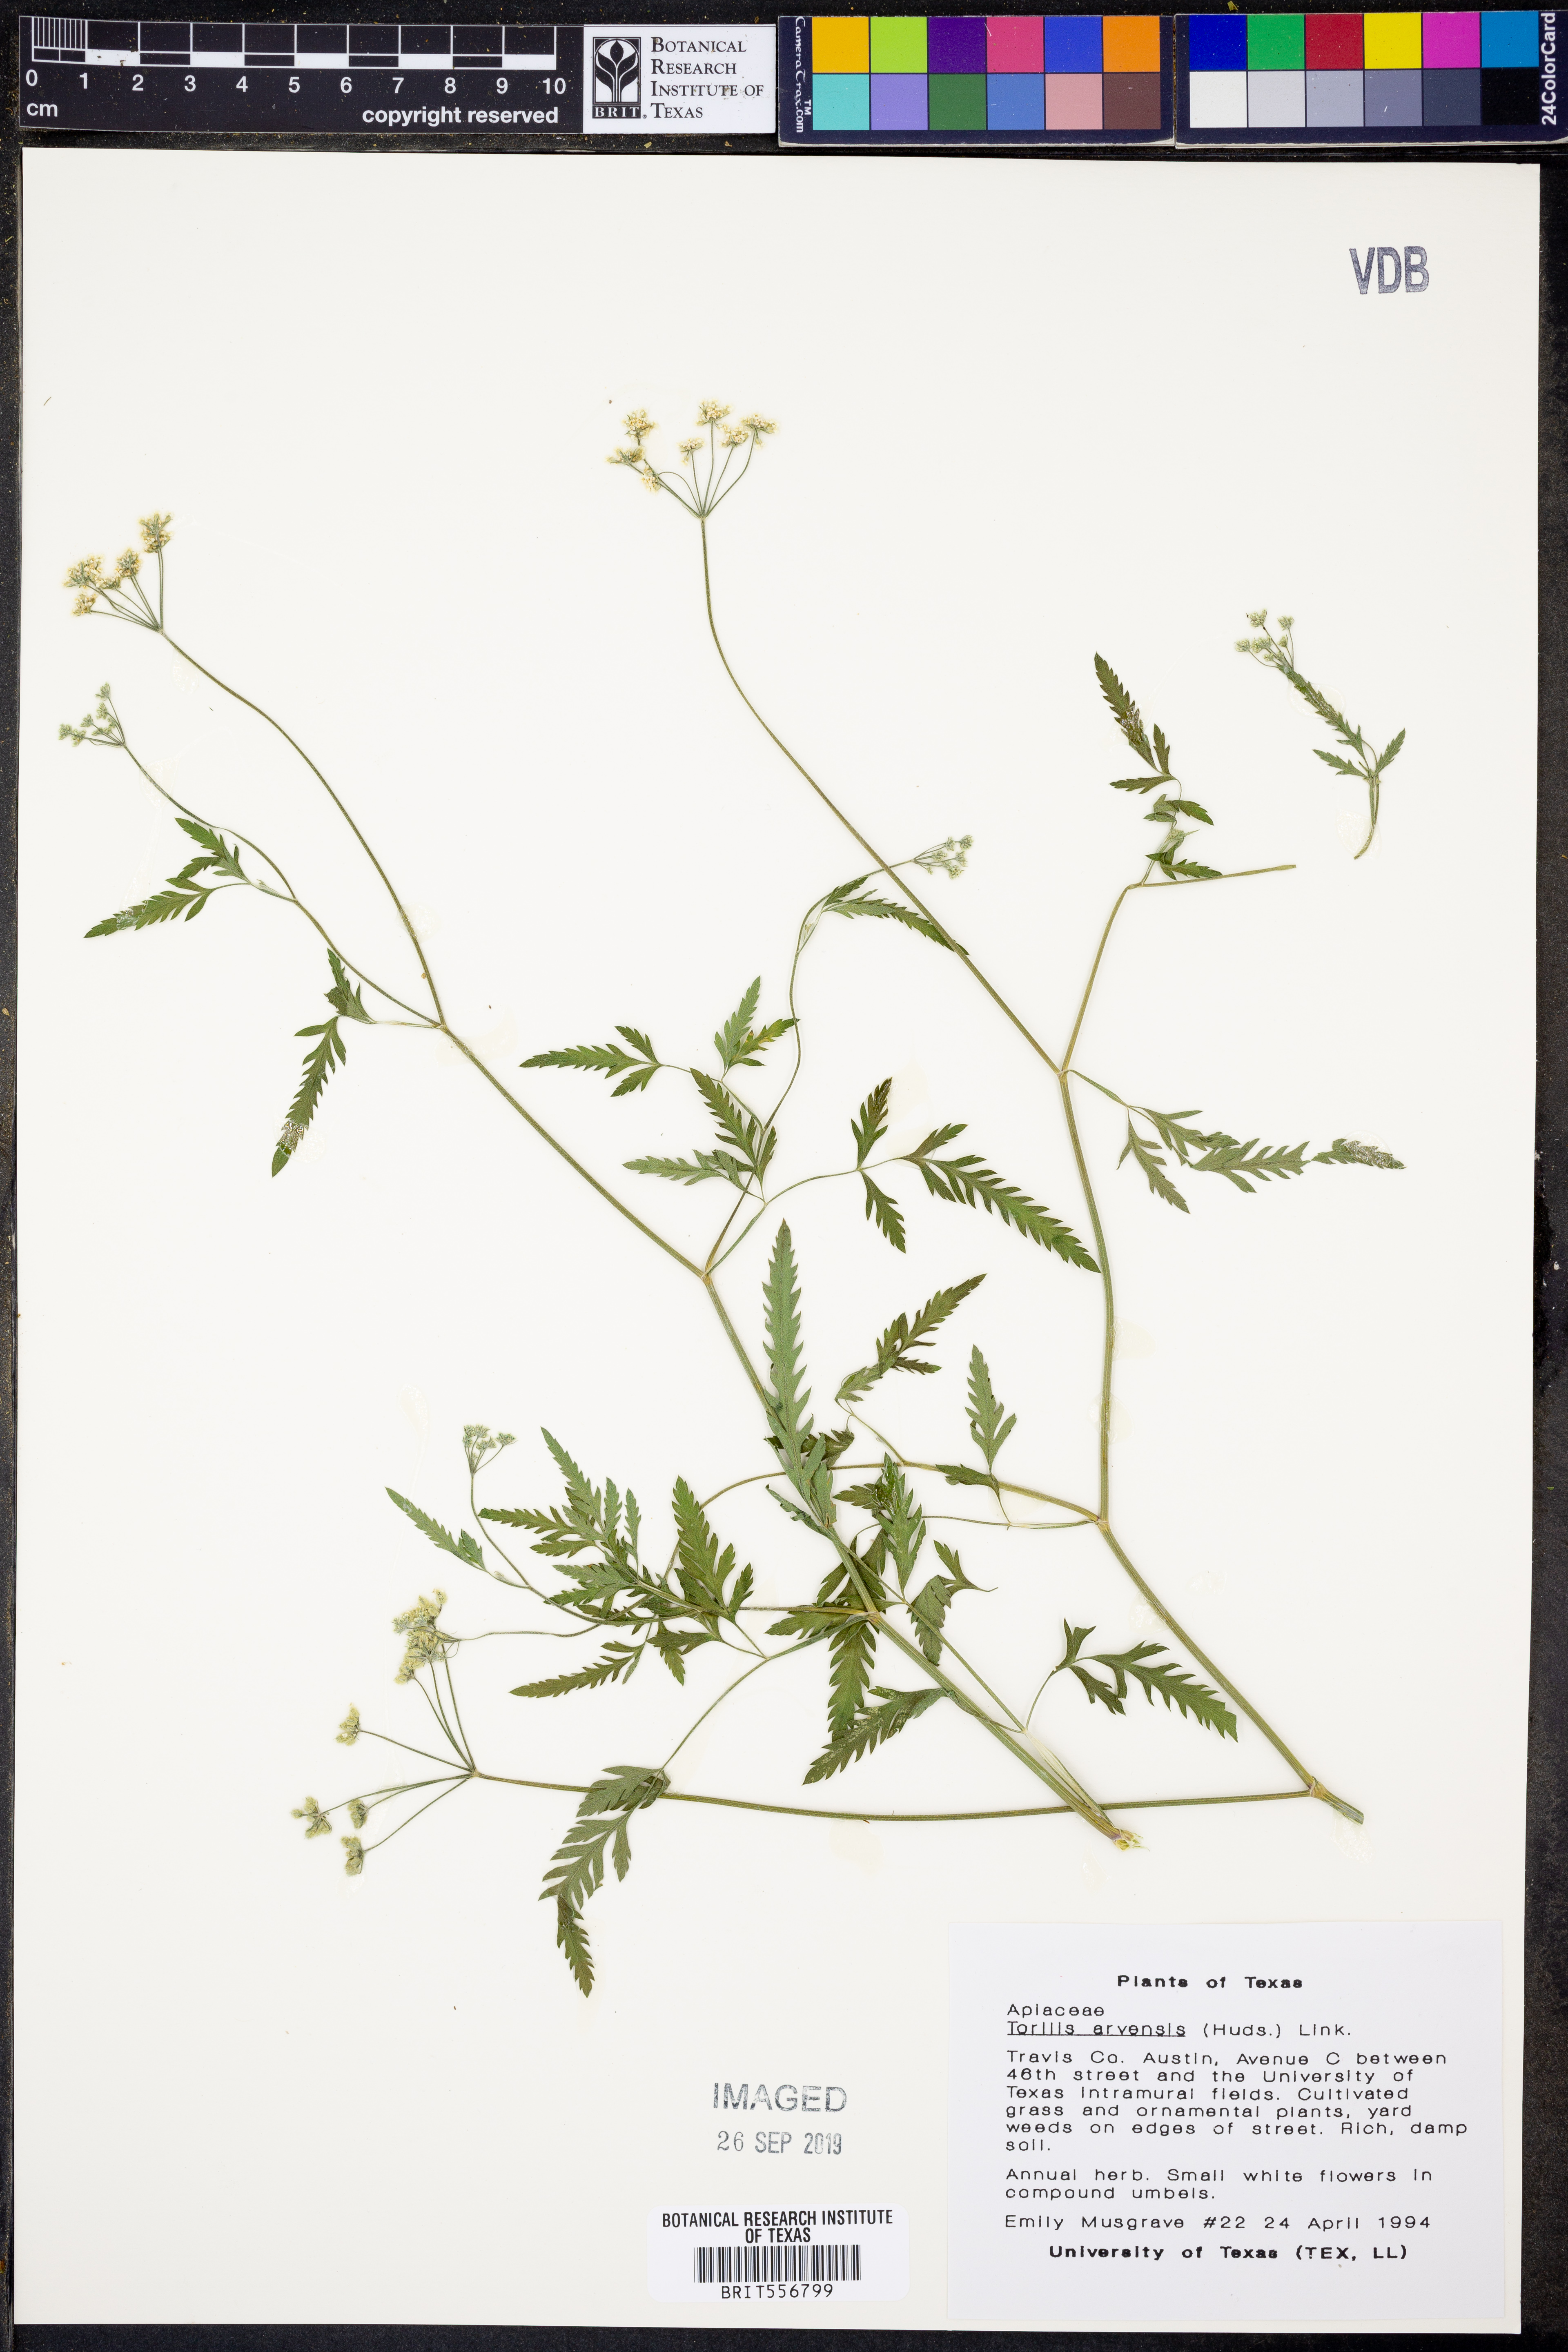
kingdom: Plantae
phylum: Tracheophyta
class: Magnoliopsida
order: Apiales
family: Apiaceae
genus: Torilis
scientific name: Torilis arvensis
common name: Spreading hedge-parsley
